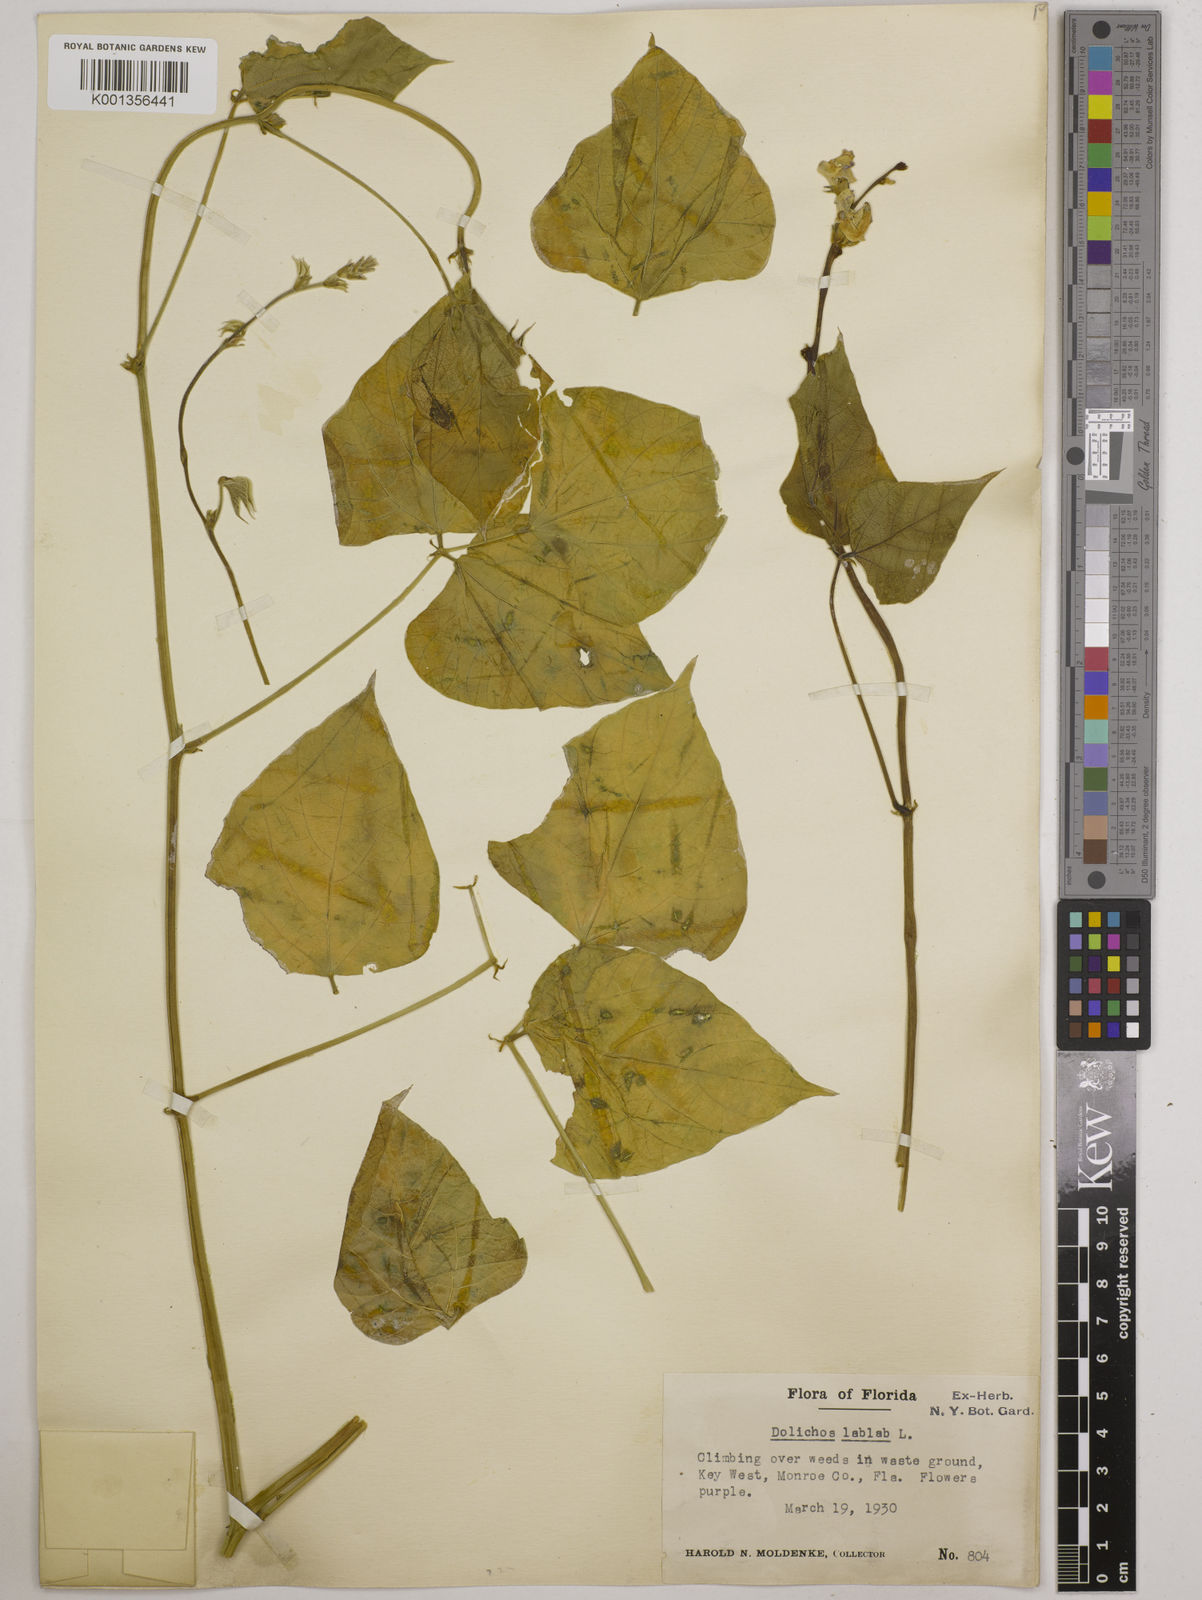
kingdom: Plantae
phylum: Tracheophyta
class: Magnoliopsida
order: Fabales
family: Fabaceae
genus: Lablab
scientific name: Lablab purpureus
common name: Lablab-bean
